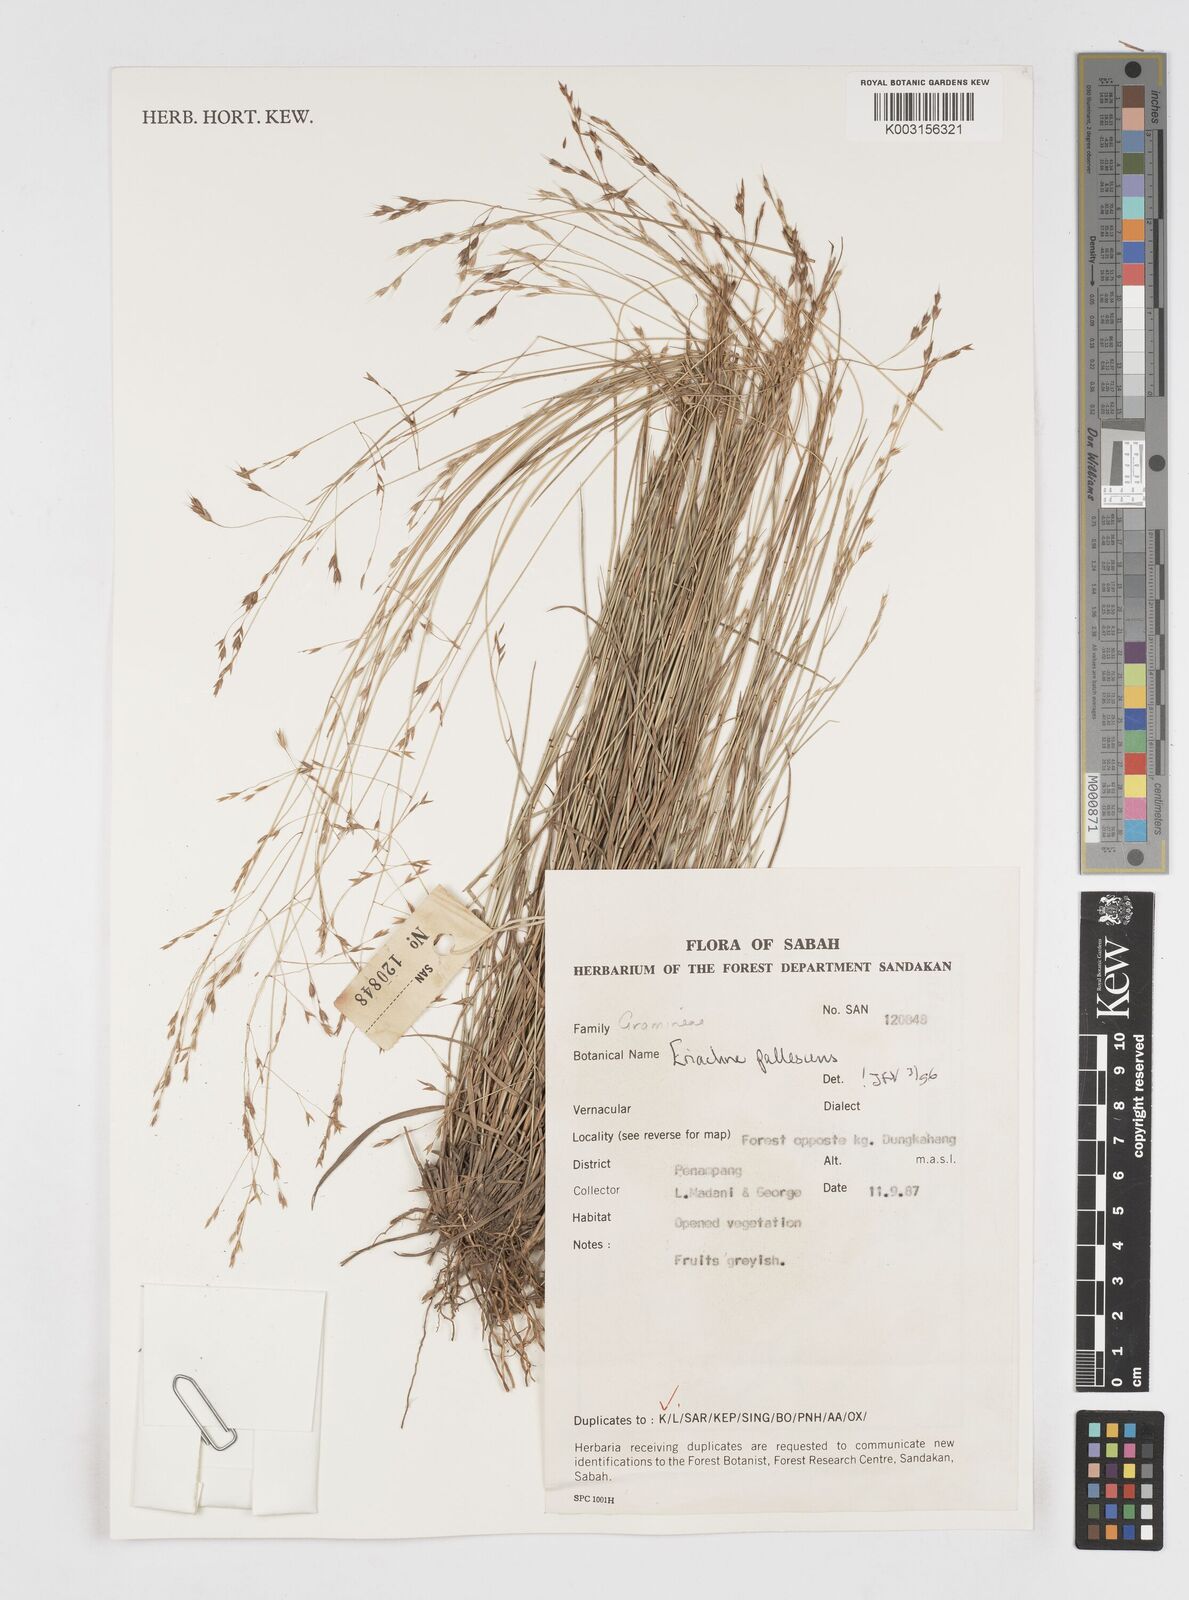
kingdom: Plantae
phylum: Tracheophyta
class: Liliopsida
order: Poales
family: Poaceae
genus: Eriachne
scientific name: Eriachne pallescens
